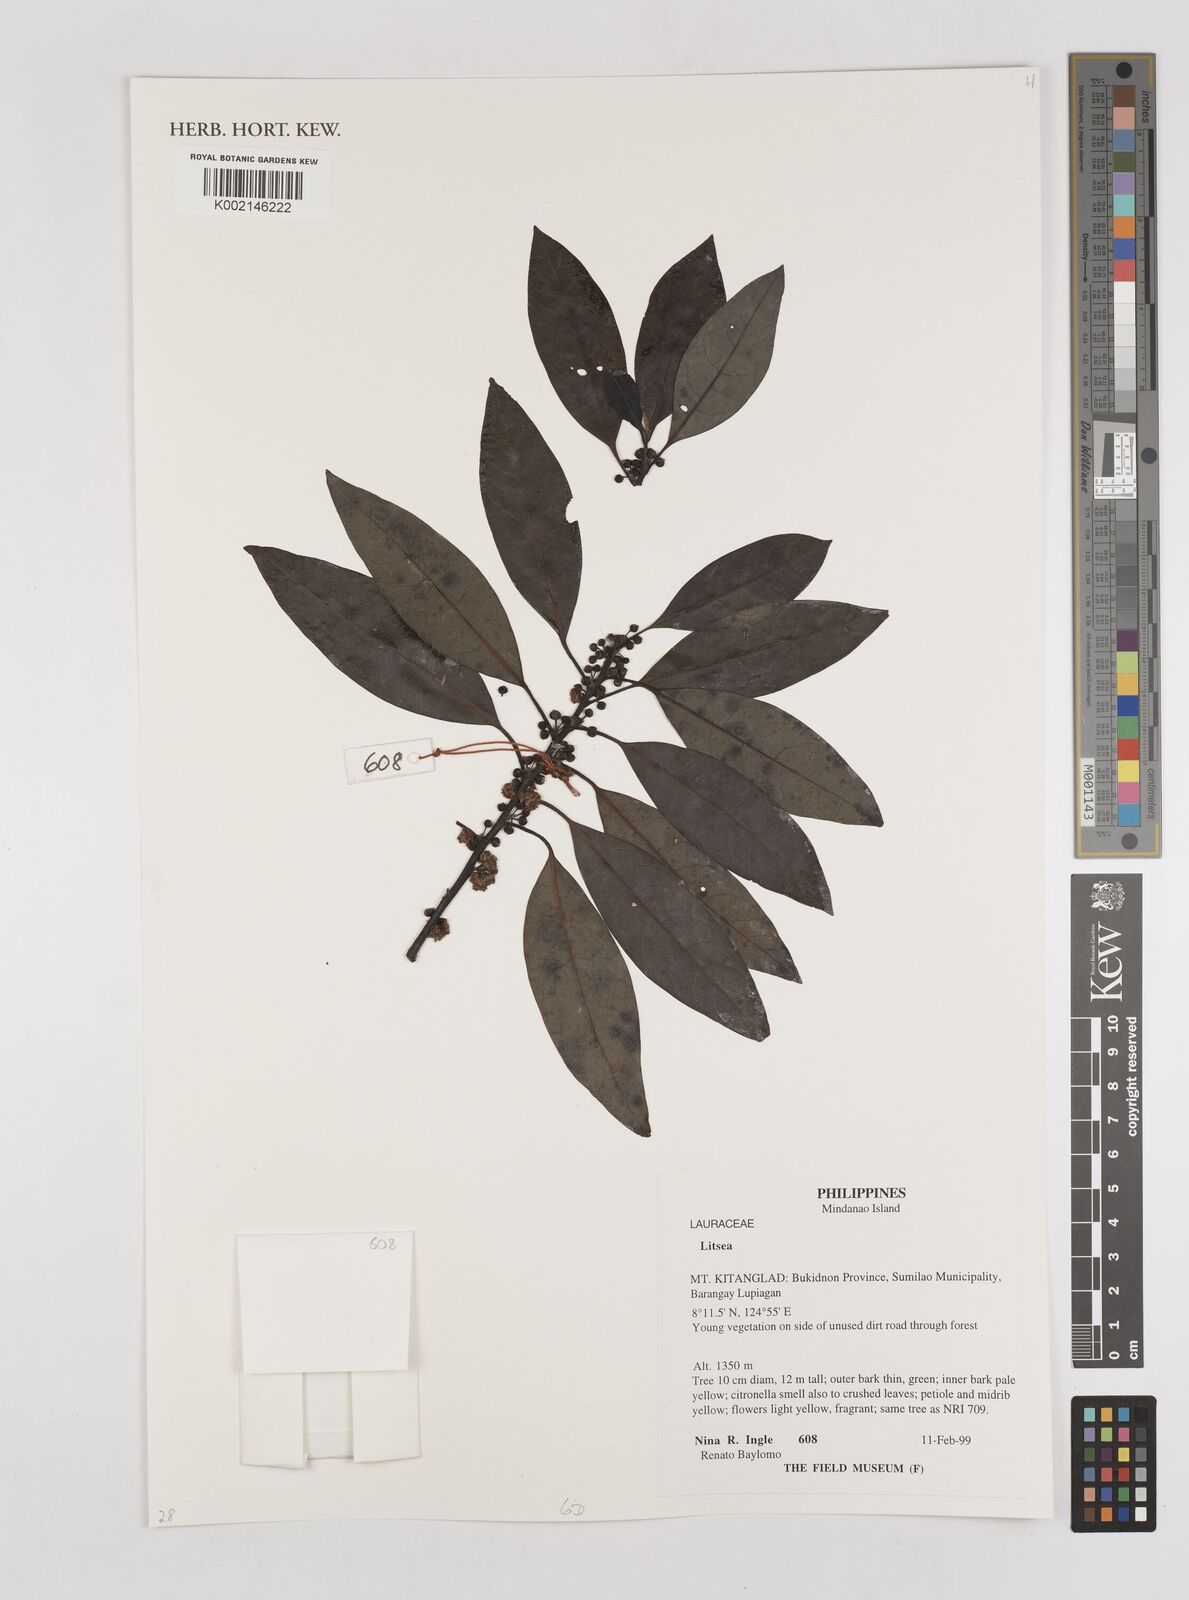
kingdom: Plantae
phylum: Tracheophyta
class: Magnoliopsida
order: Laurales
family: Lauraceae
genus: Litsea
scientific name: Litsea
